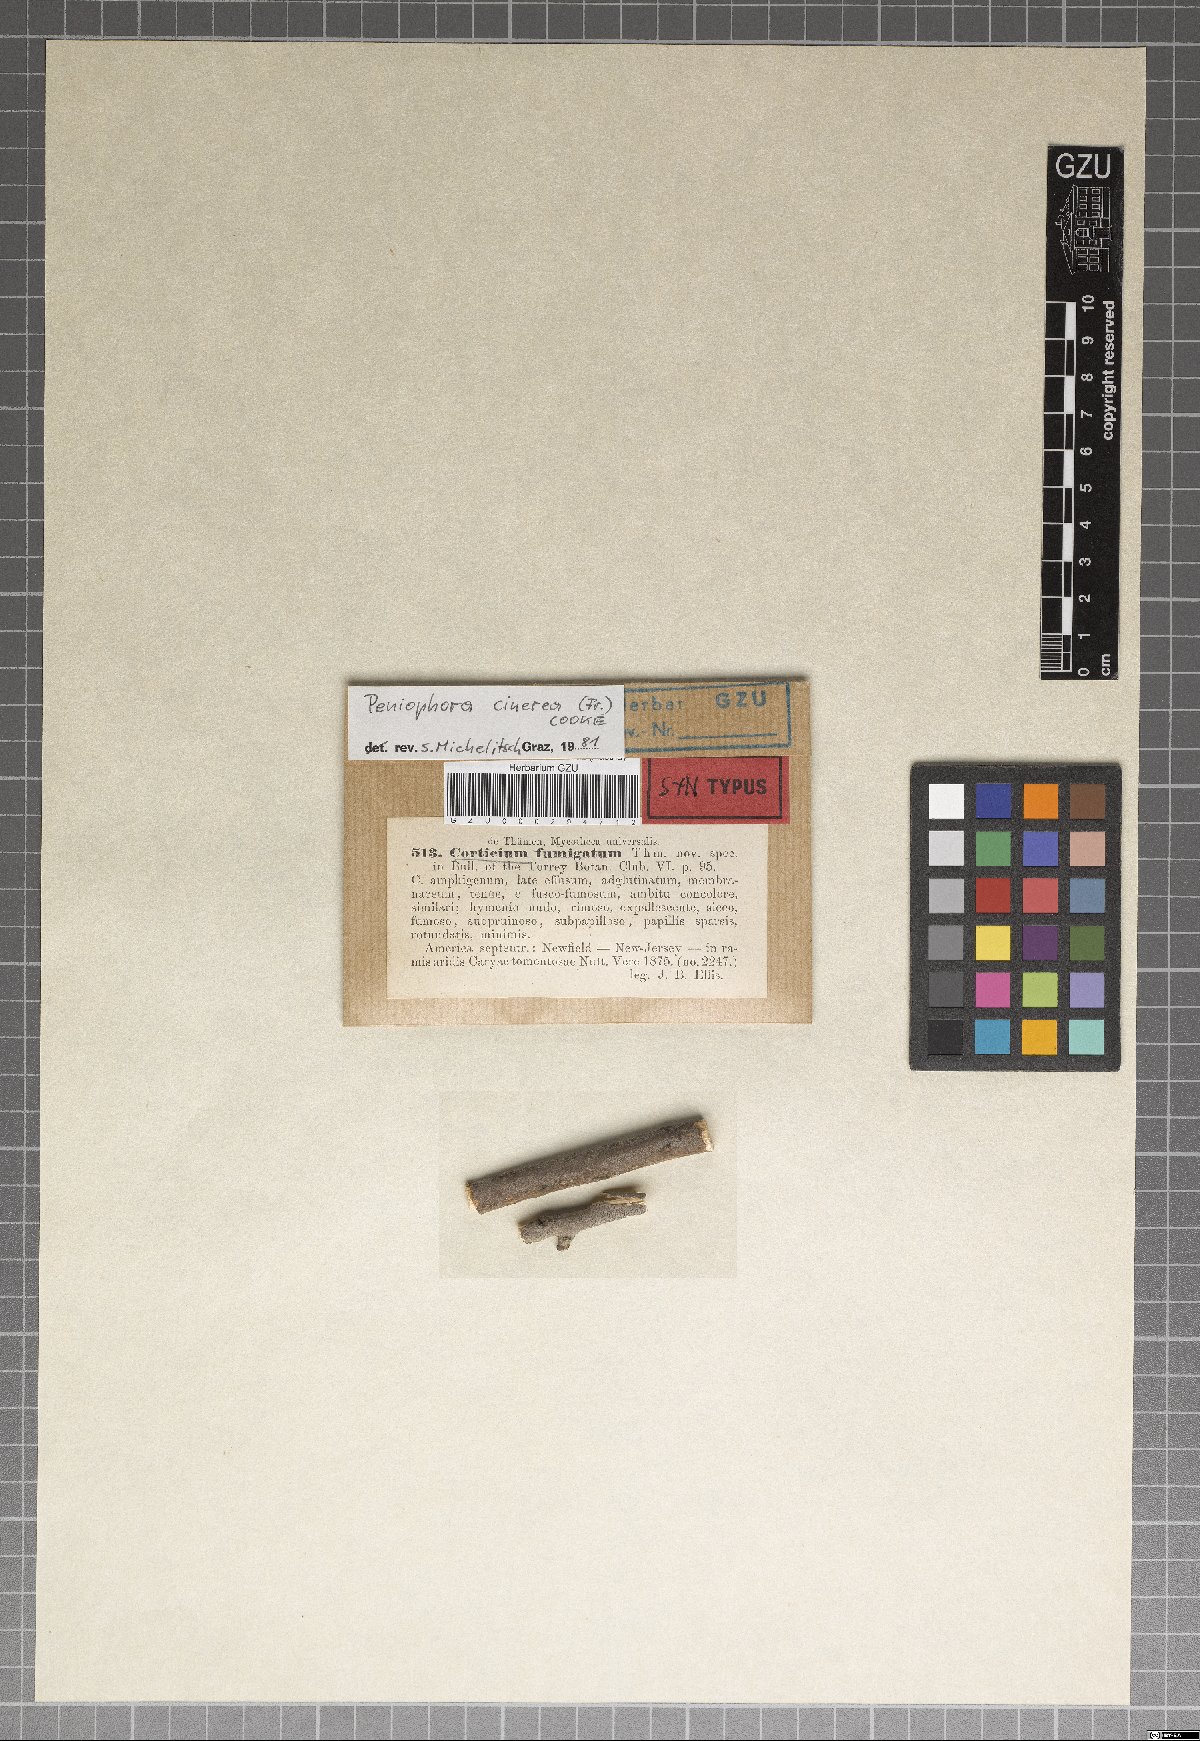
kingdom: Fungi
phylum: Basidiomycota
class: Agaricomycetes
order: Russulales
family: Peniophoraceae
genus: Peniophora
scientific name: Peniophora fumigata
